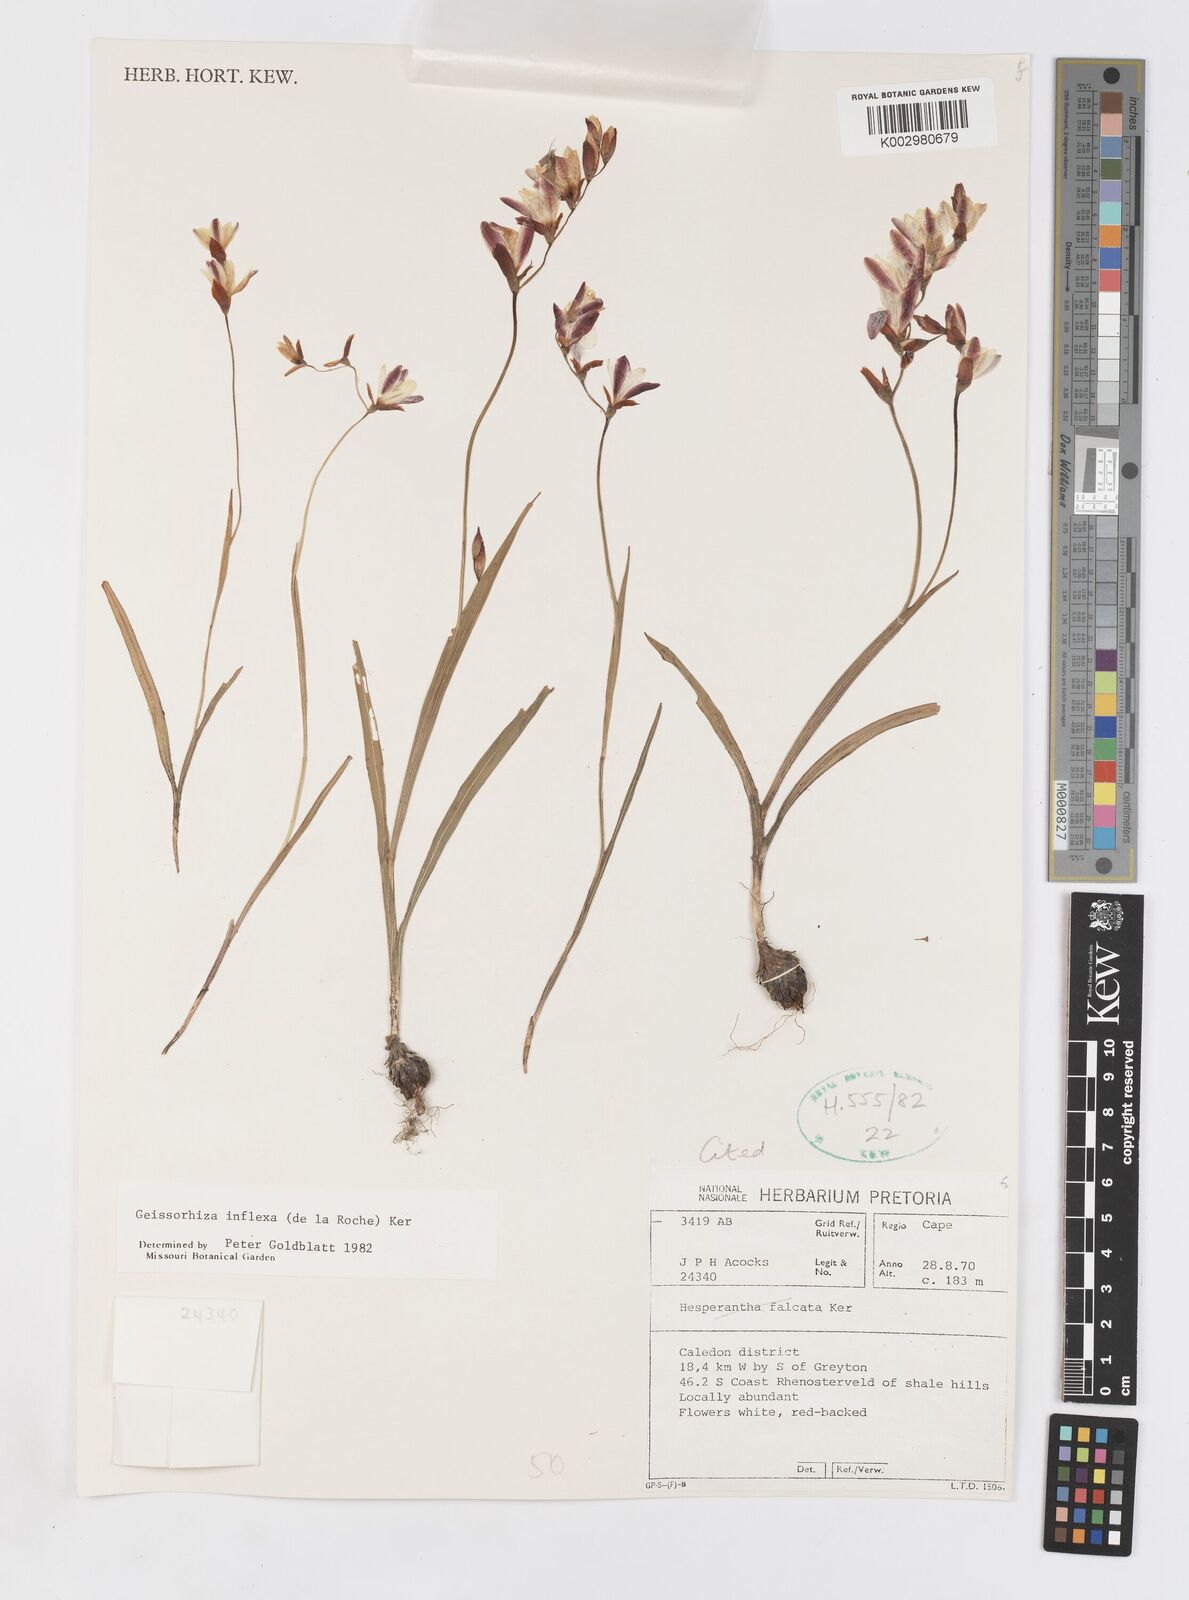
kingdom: Plantae
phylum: Tracheophyta
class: Liliopsida
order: Asparagales
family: Iridaceae
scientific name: Iridaceae
